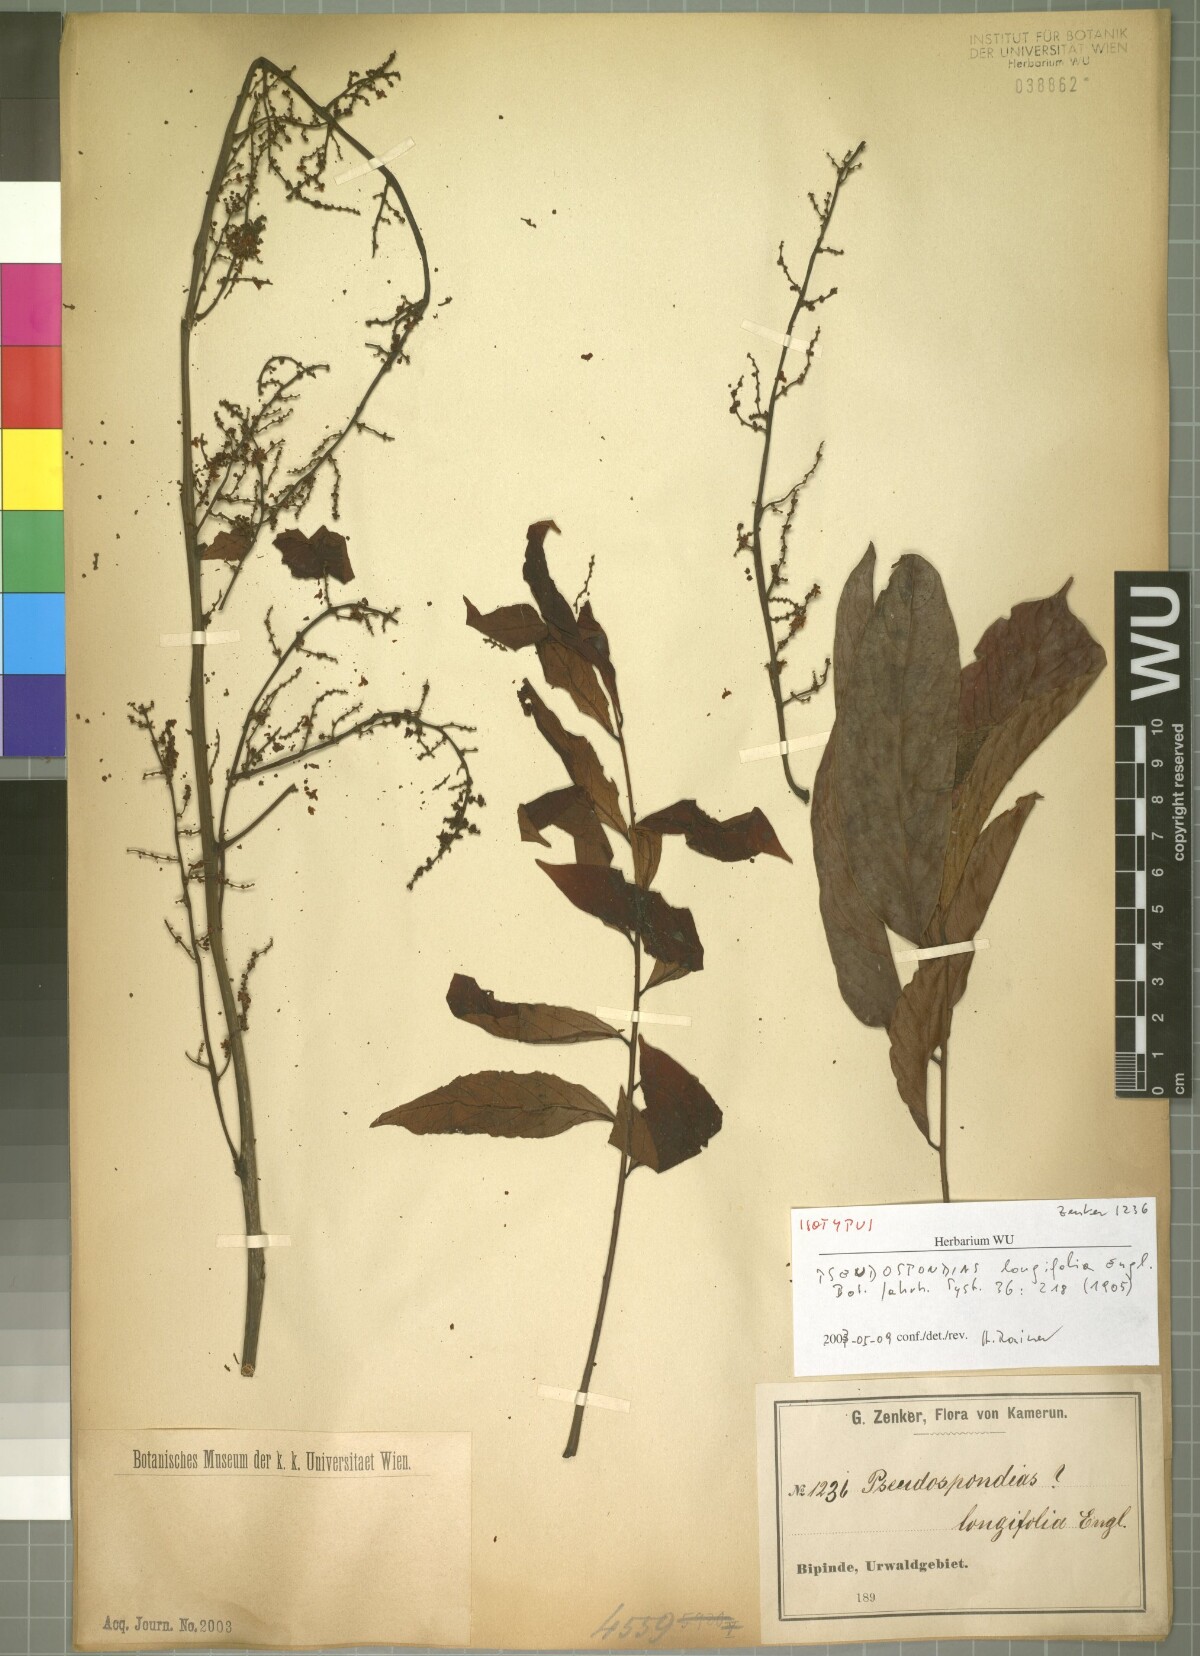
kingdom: Plantae
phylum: Tracheophyta
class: Magnoliopsida
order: Sapindales
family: Anacardiaceae
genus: Pseudospondias
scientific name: Pseudospondias longifolia
